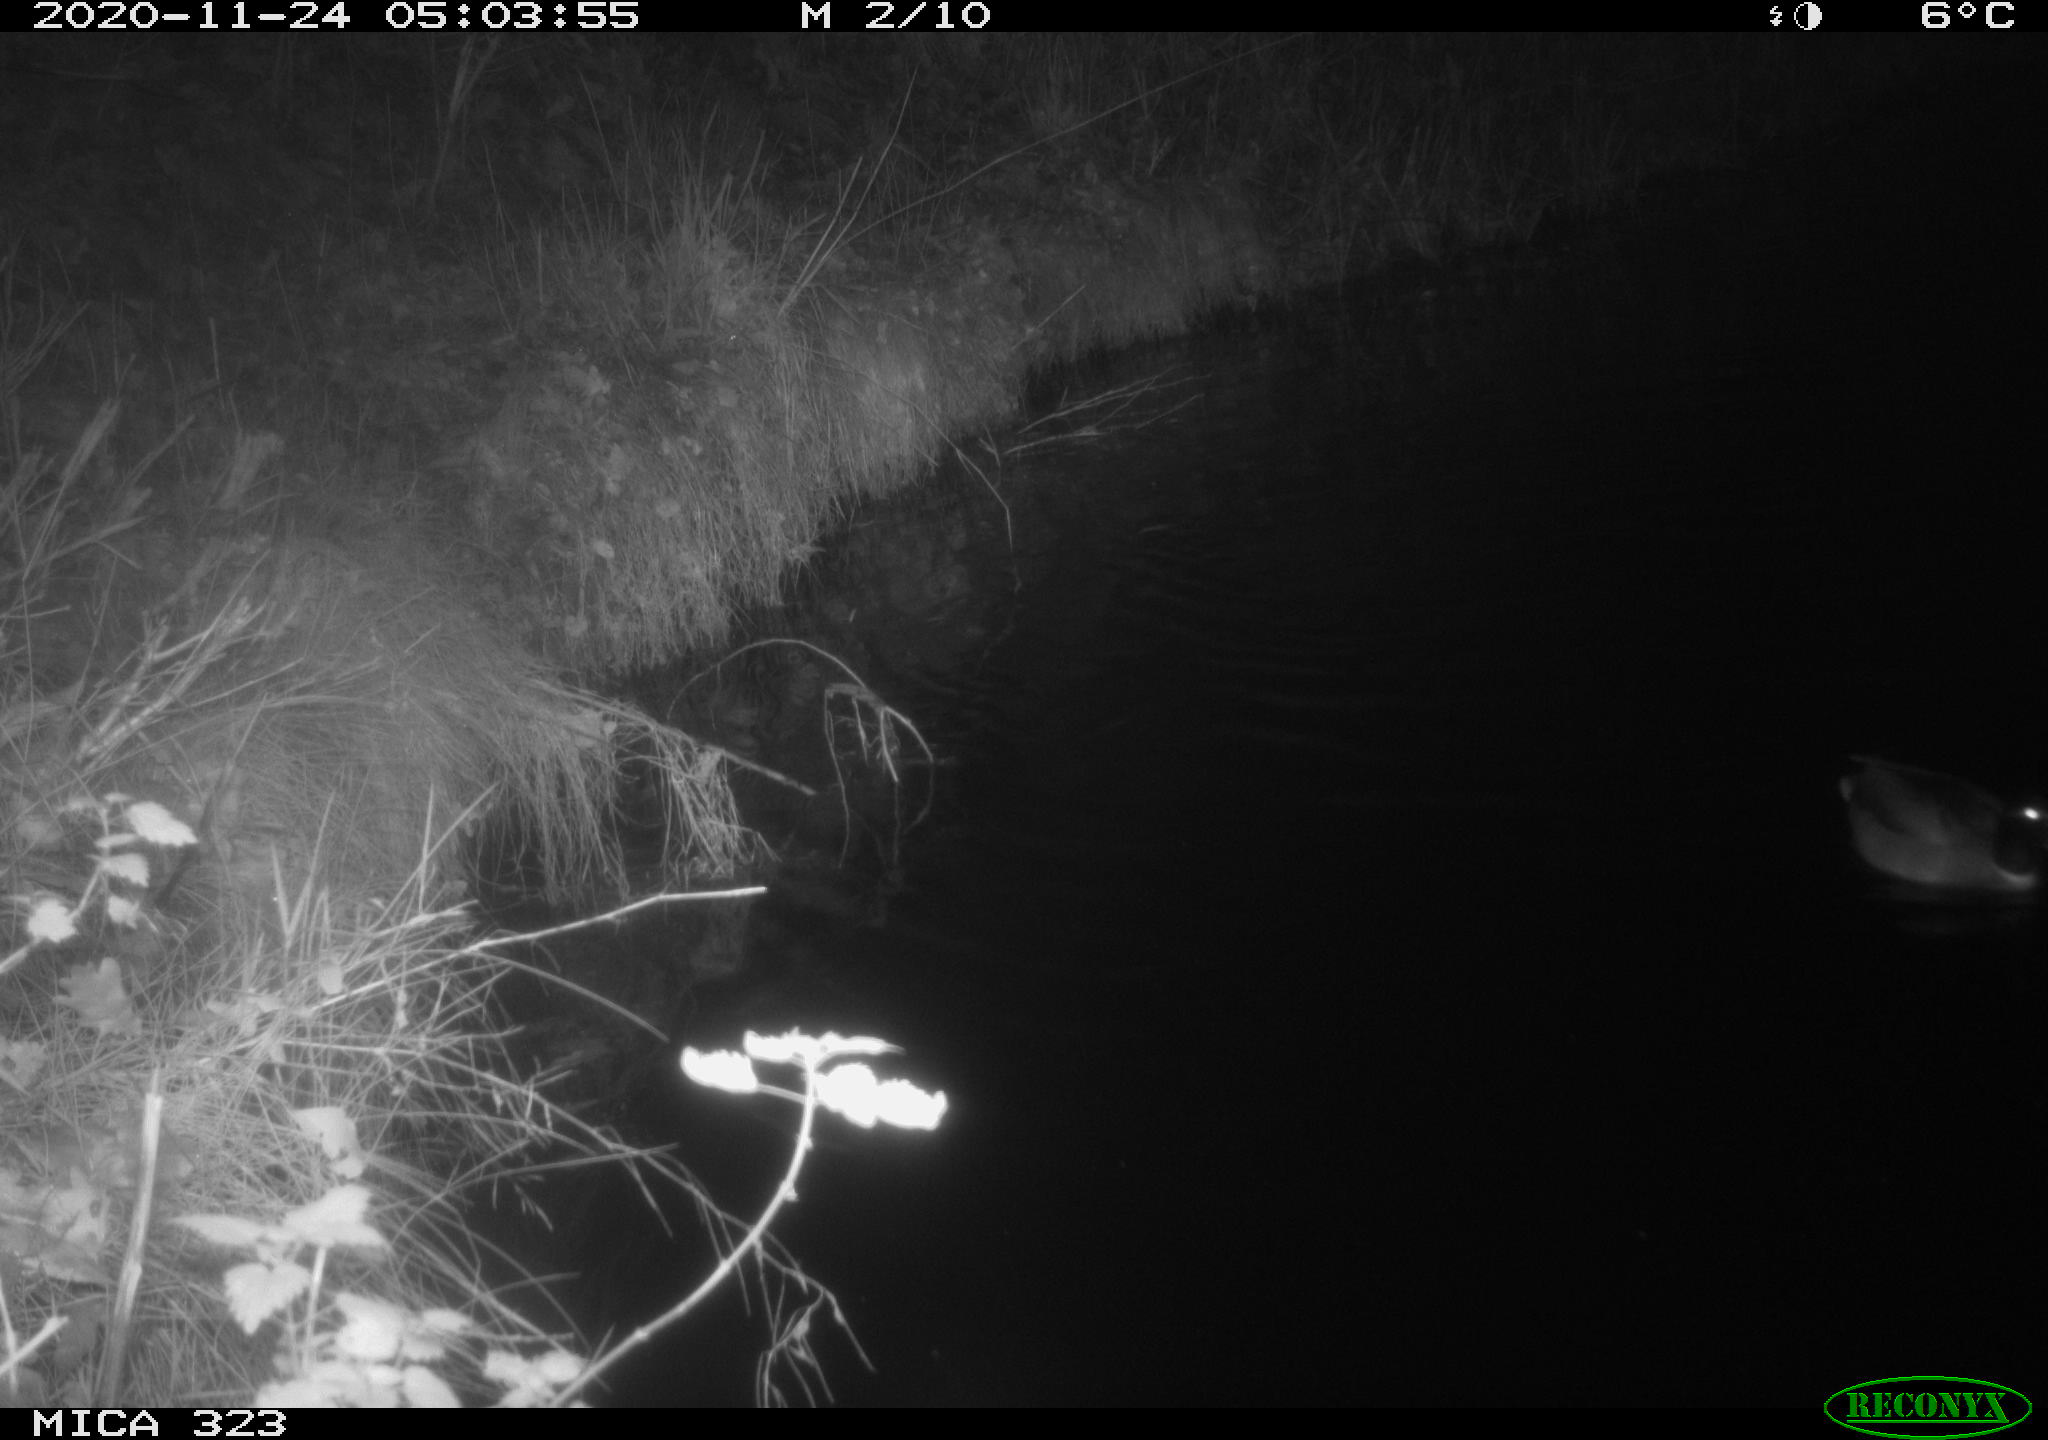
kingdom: Animalia
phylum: Chordata
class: Aves
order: Anseriformes
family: Anatidae
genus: Anas
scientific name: Anas platyrhynchos
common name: Mallard
